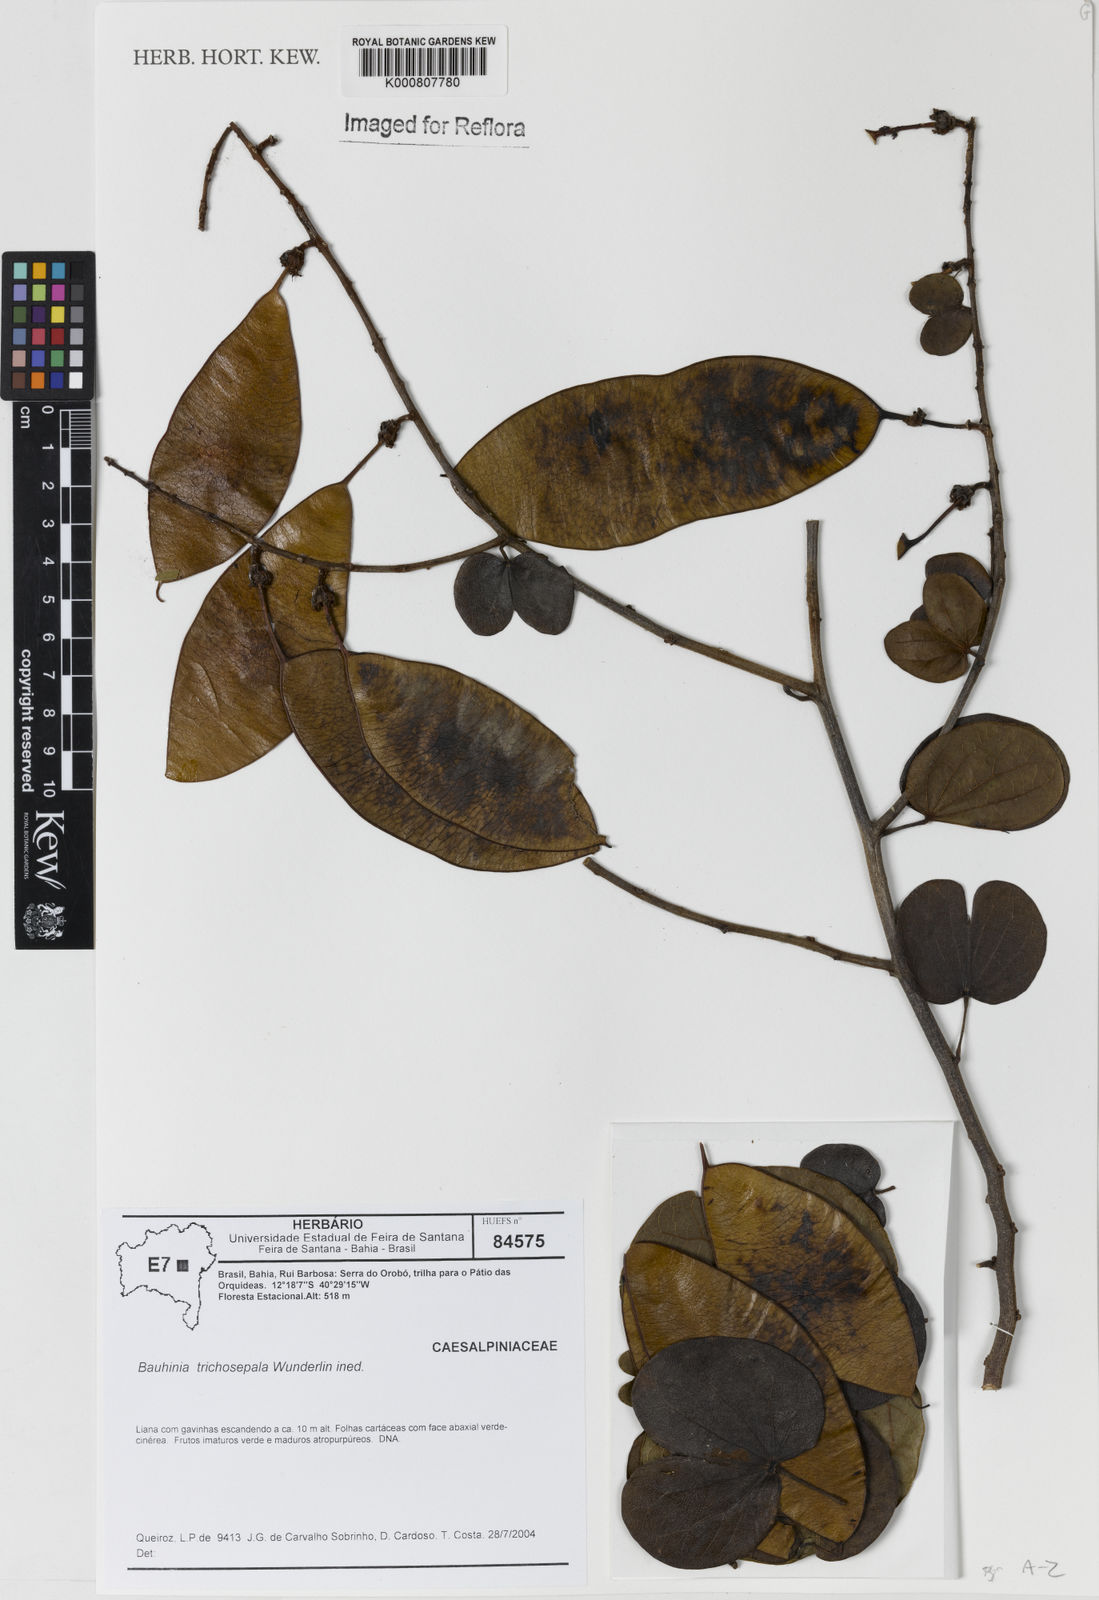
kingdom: Plantae
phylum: Tracheophyta
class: Magnoliopsida
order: Fabales
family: Fabaceae
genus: Schnella
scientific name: Schnella trichosepala
